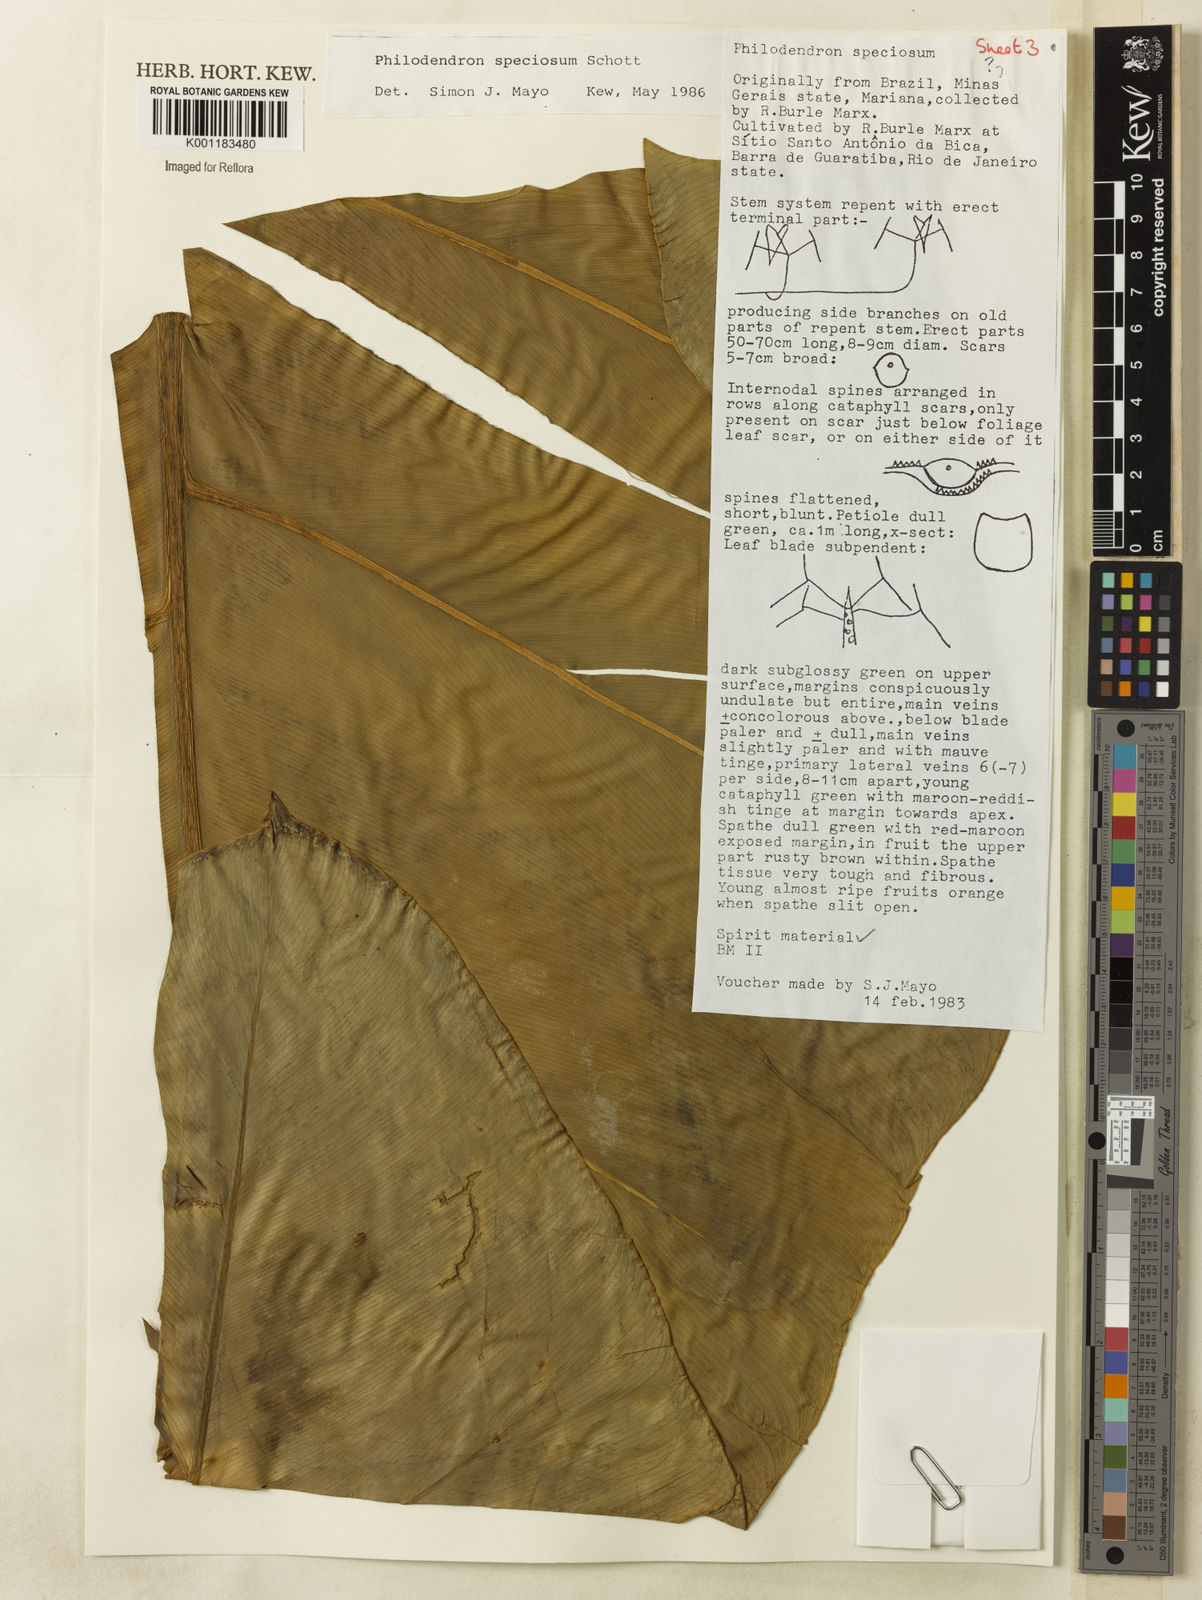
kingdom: Plantae
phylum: Tracheophyta
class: Liliopsida
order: Alismatales
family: Araceae
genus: Thaumatophyllum
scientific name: Thaumatophyllum speciosum
